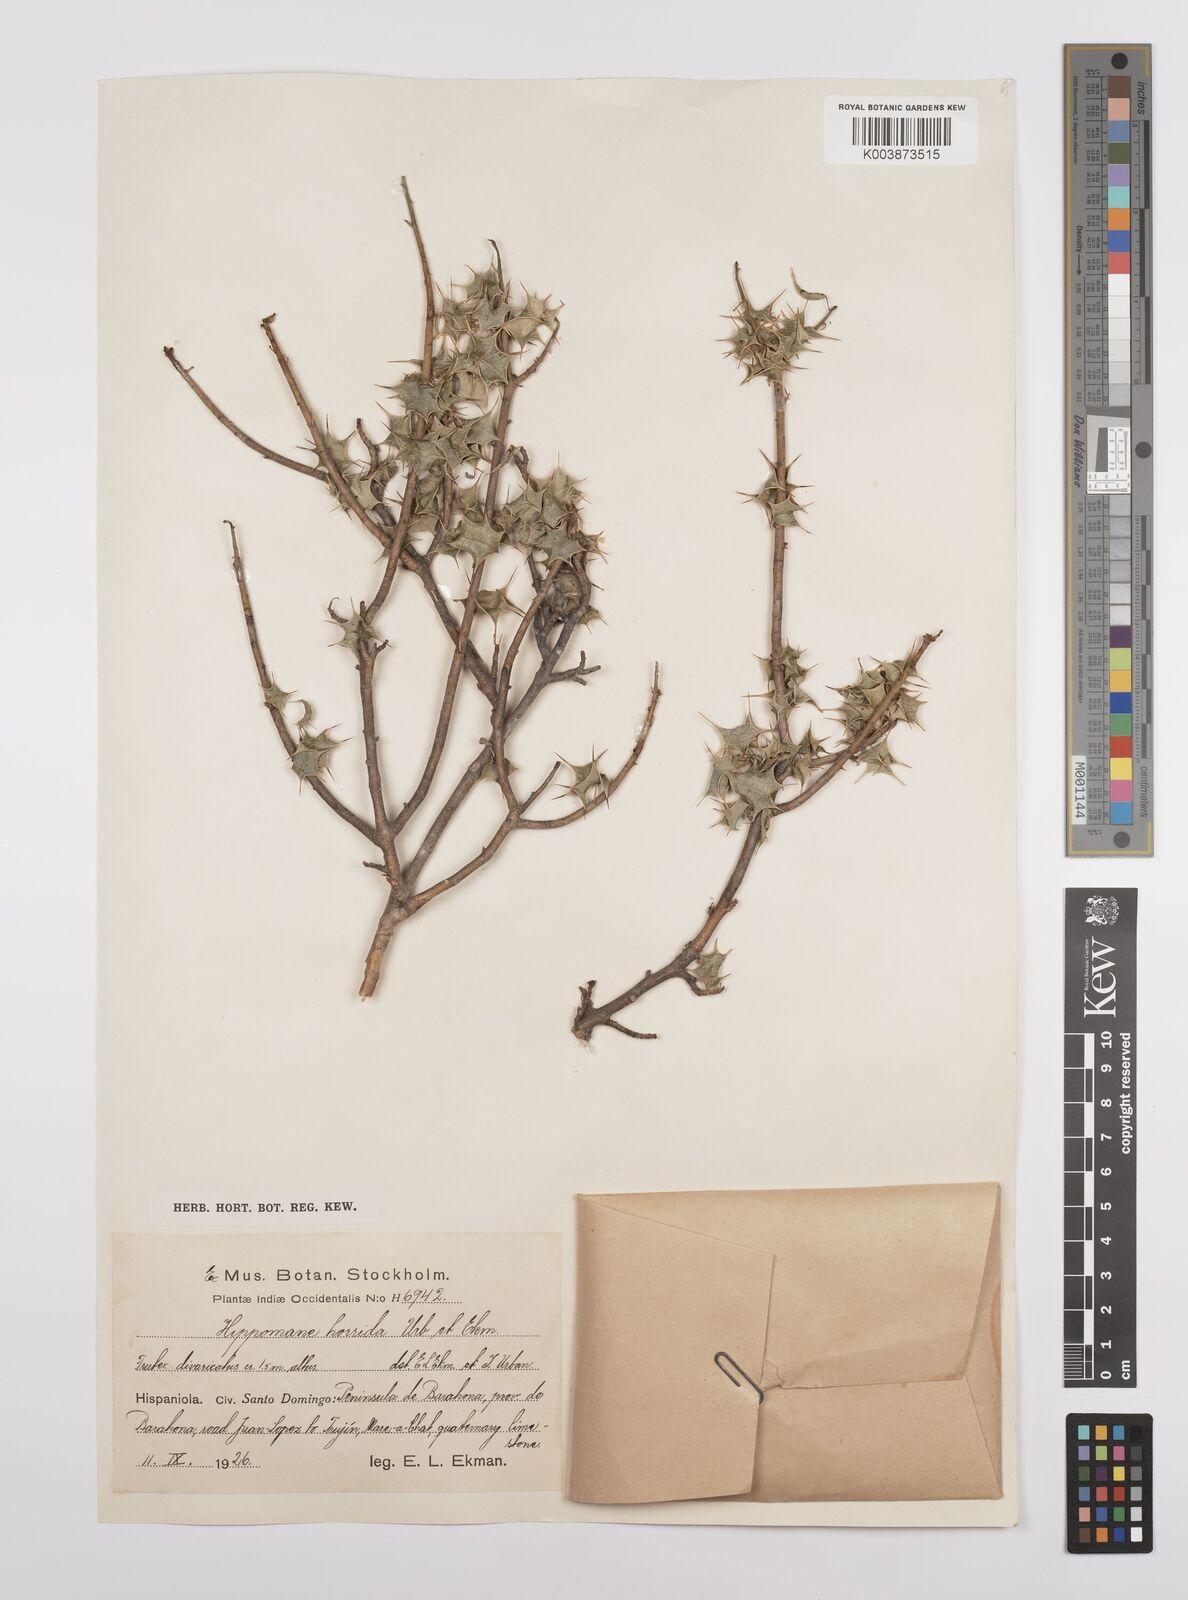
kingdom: Plantae
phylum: Tracheophyta
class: Magnoliopsida
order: Malpighiales
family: Euphorbiaceae
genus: Hippomane
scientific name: Hippomane horrida
